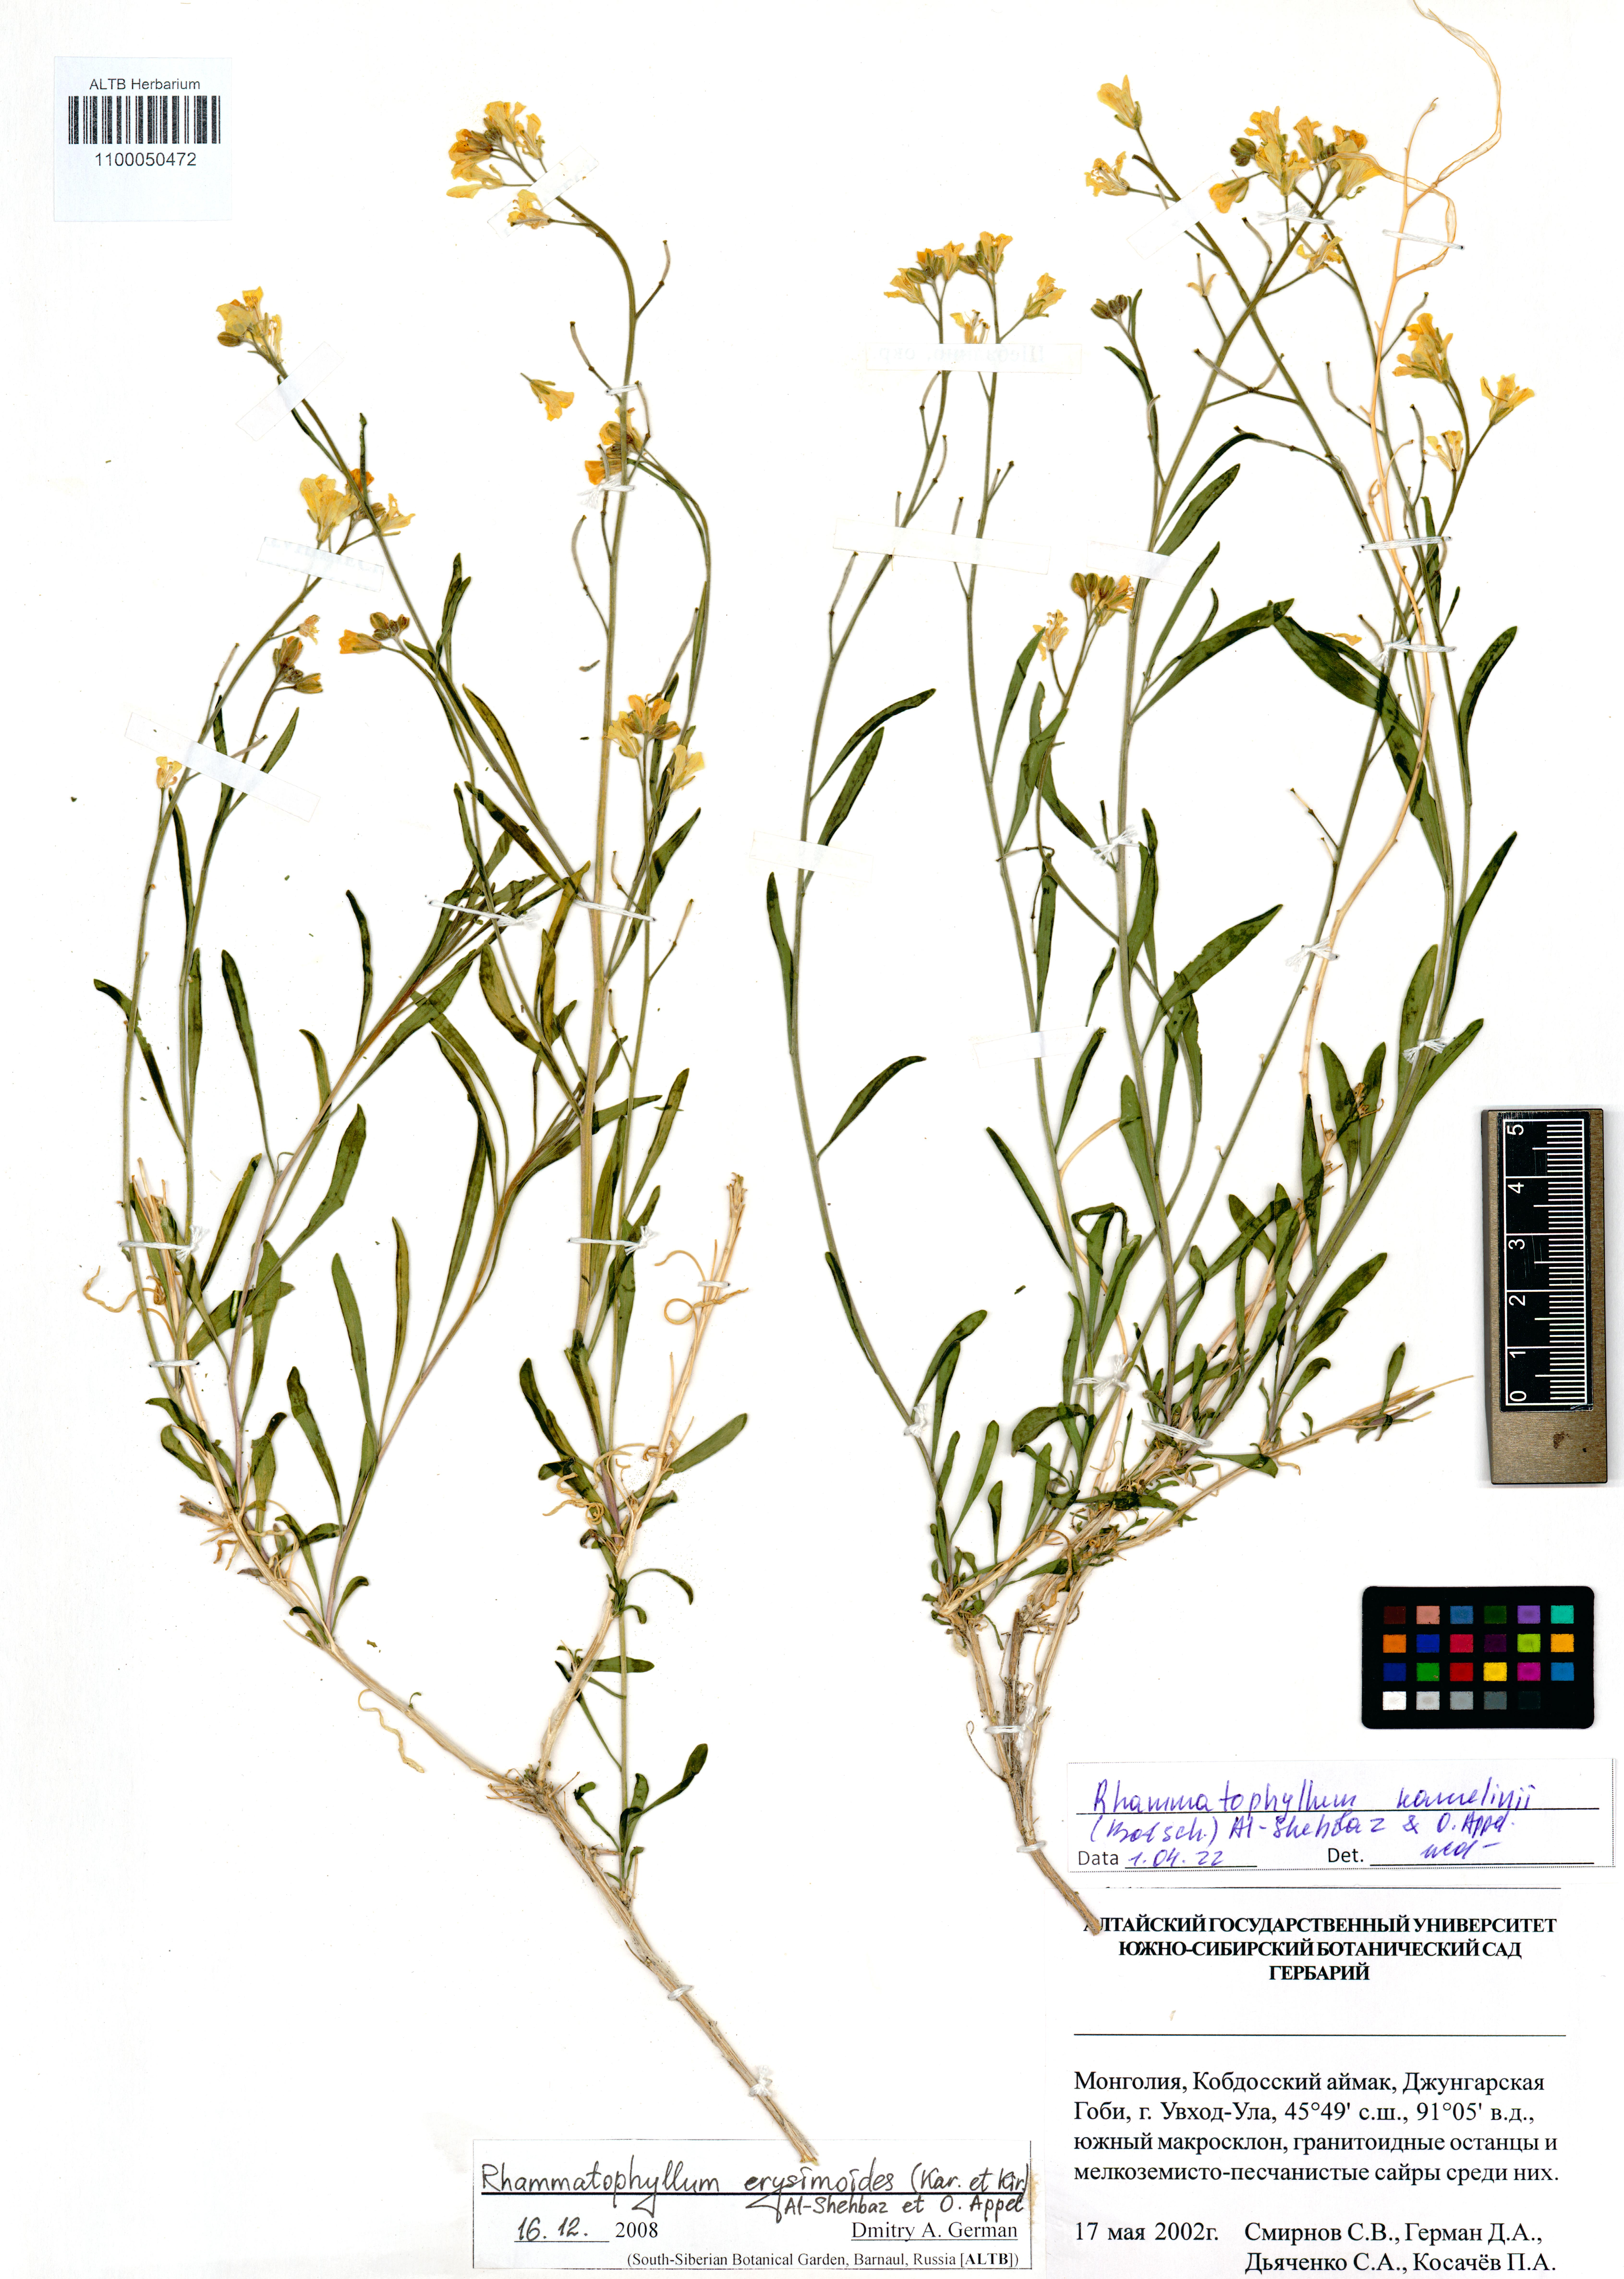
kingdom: Plantae
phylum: Tracheophyta
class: Magnoliopsida
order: Brassicales
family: Brassicaceae
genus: Rhammatophyllum
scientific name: Rhammatophyllum kamelinii
